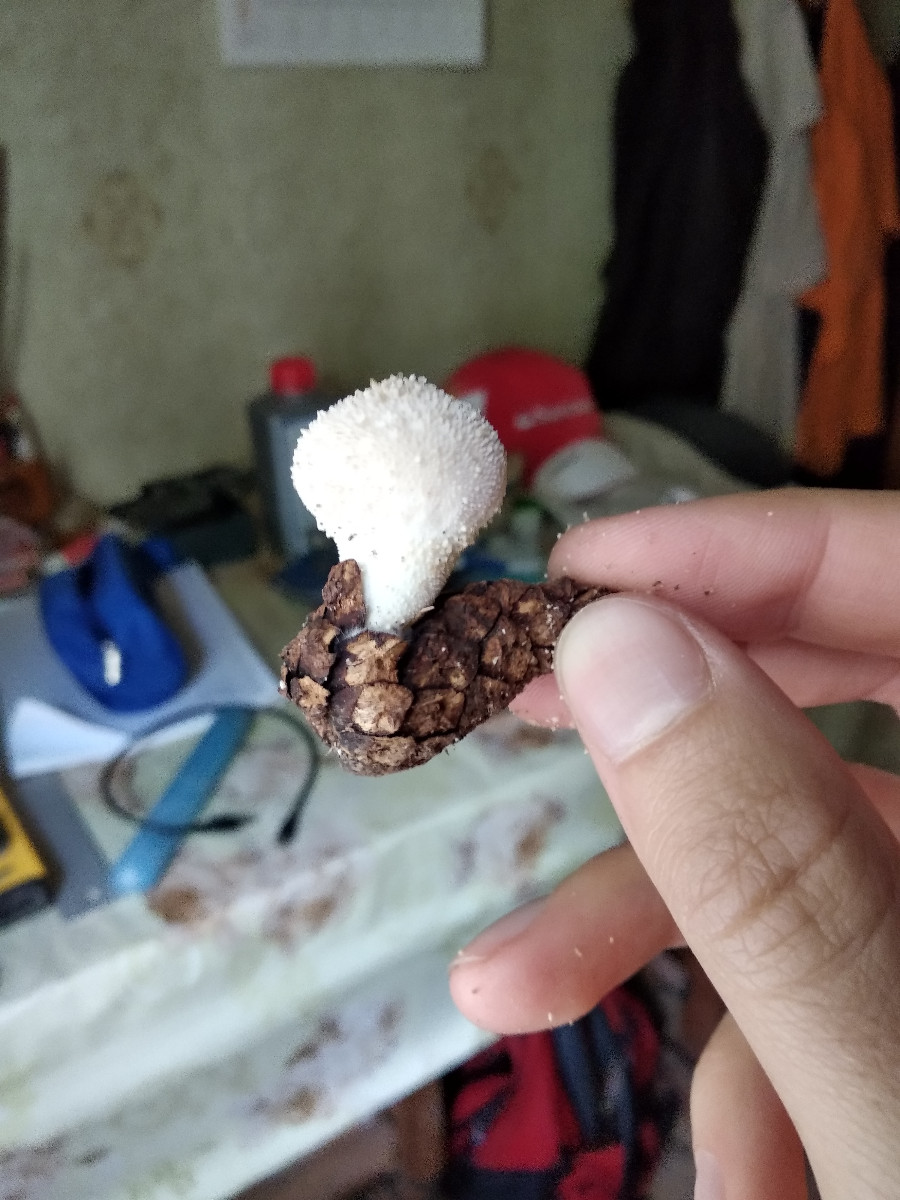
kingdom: Fungi
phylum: Basidiomycota
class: Agaricomycetes
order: Agaricales
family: Agaricaceae
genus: Lycoperdon
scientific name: Lycoperdon
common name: støvbold
